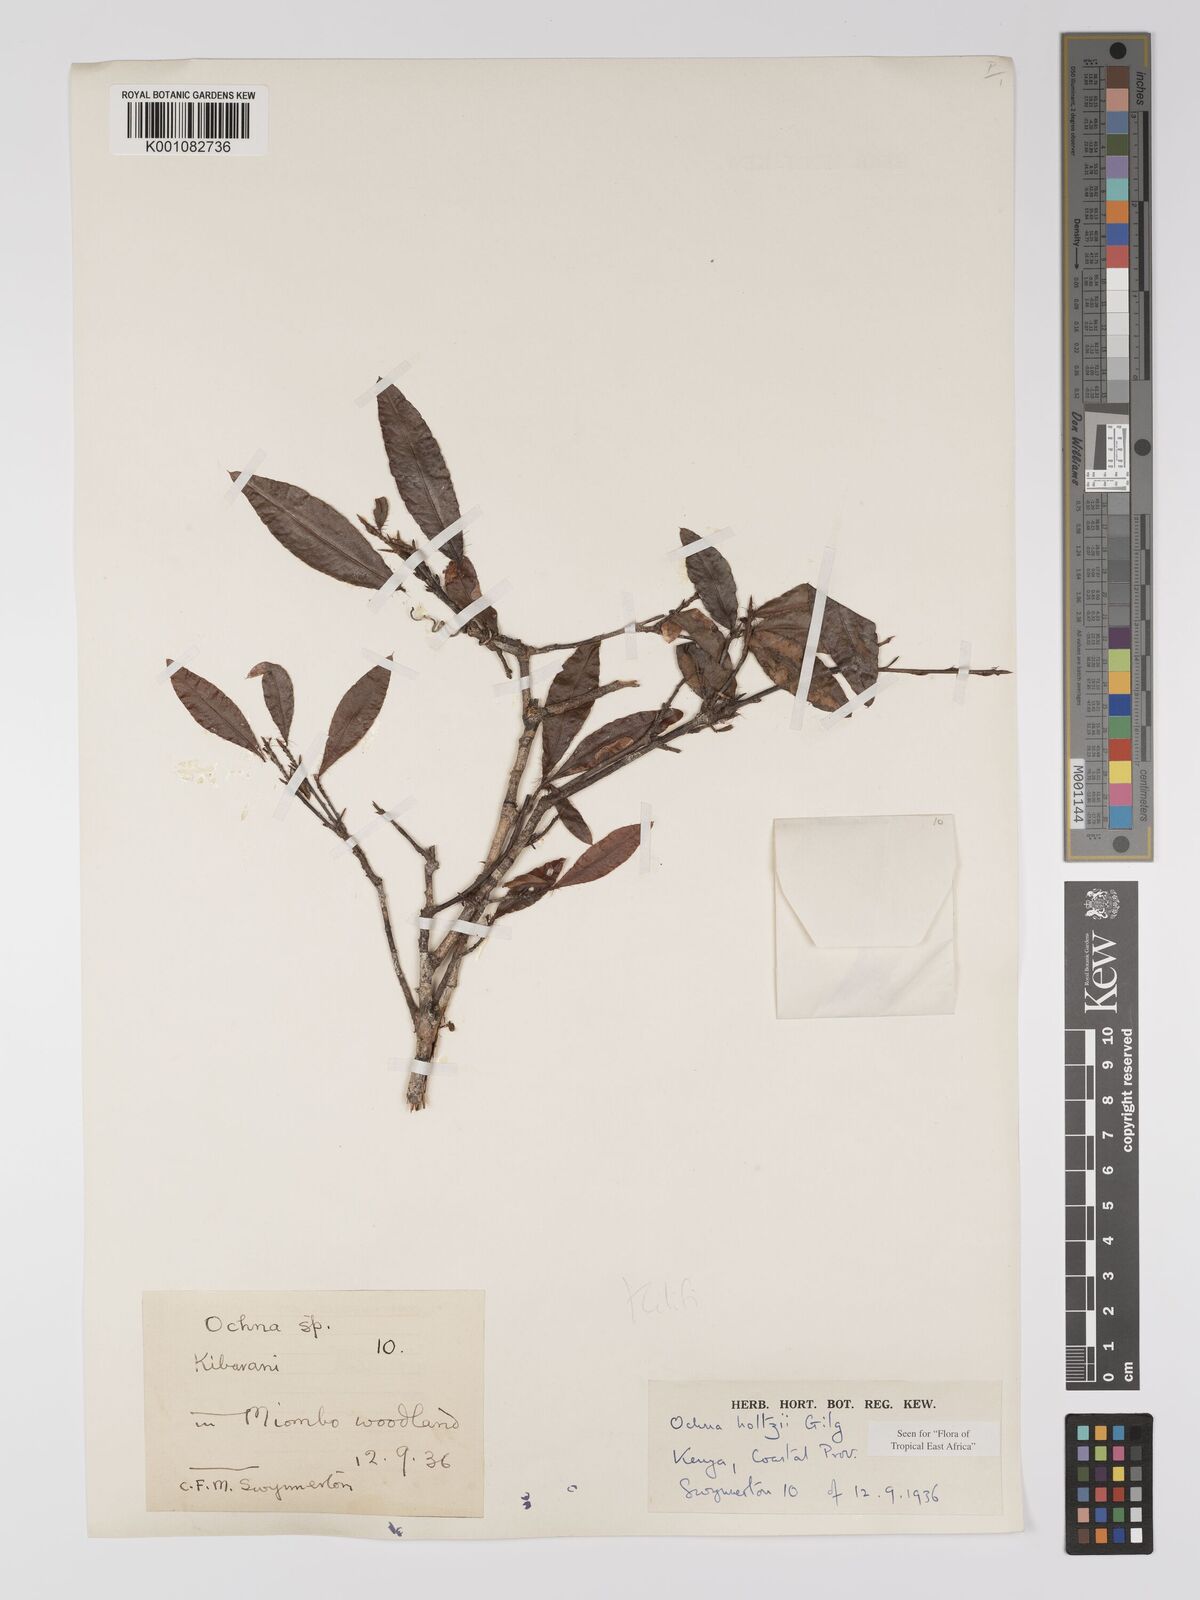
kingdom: Plantae
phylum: Tracheophyta
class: Magnoliopsida
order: Malpighiales
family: Ochnaceae
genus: Ochna
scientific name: Ochna holtzii
